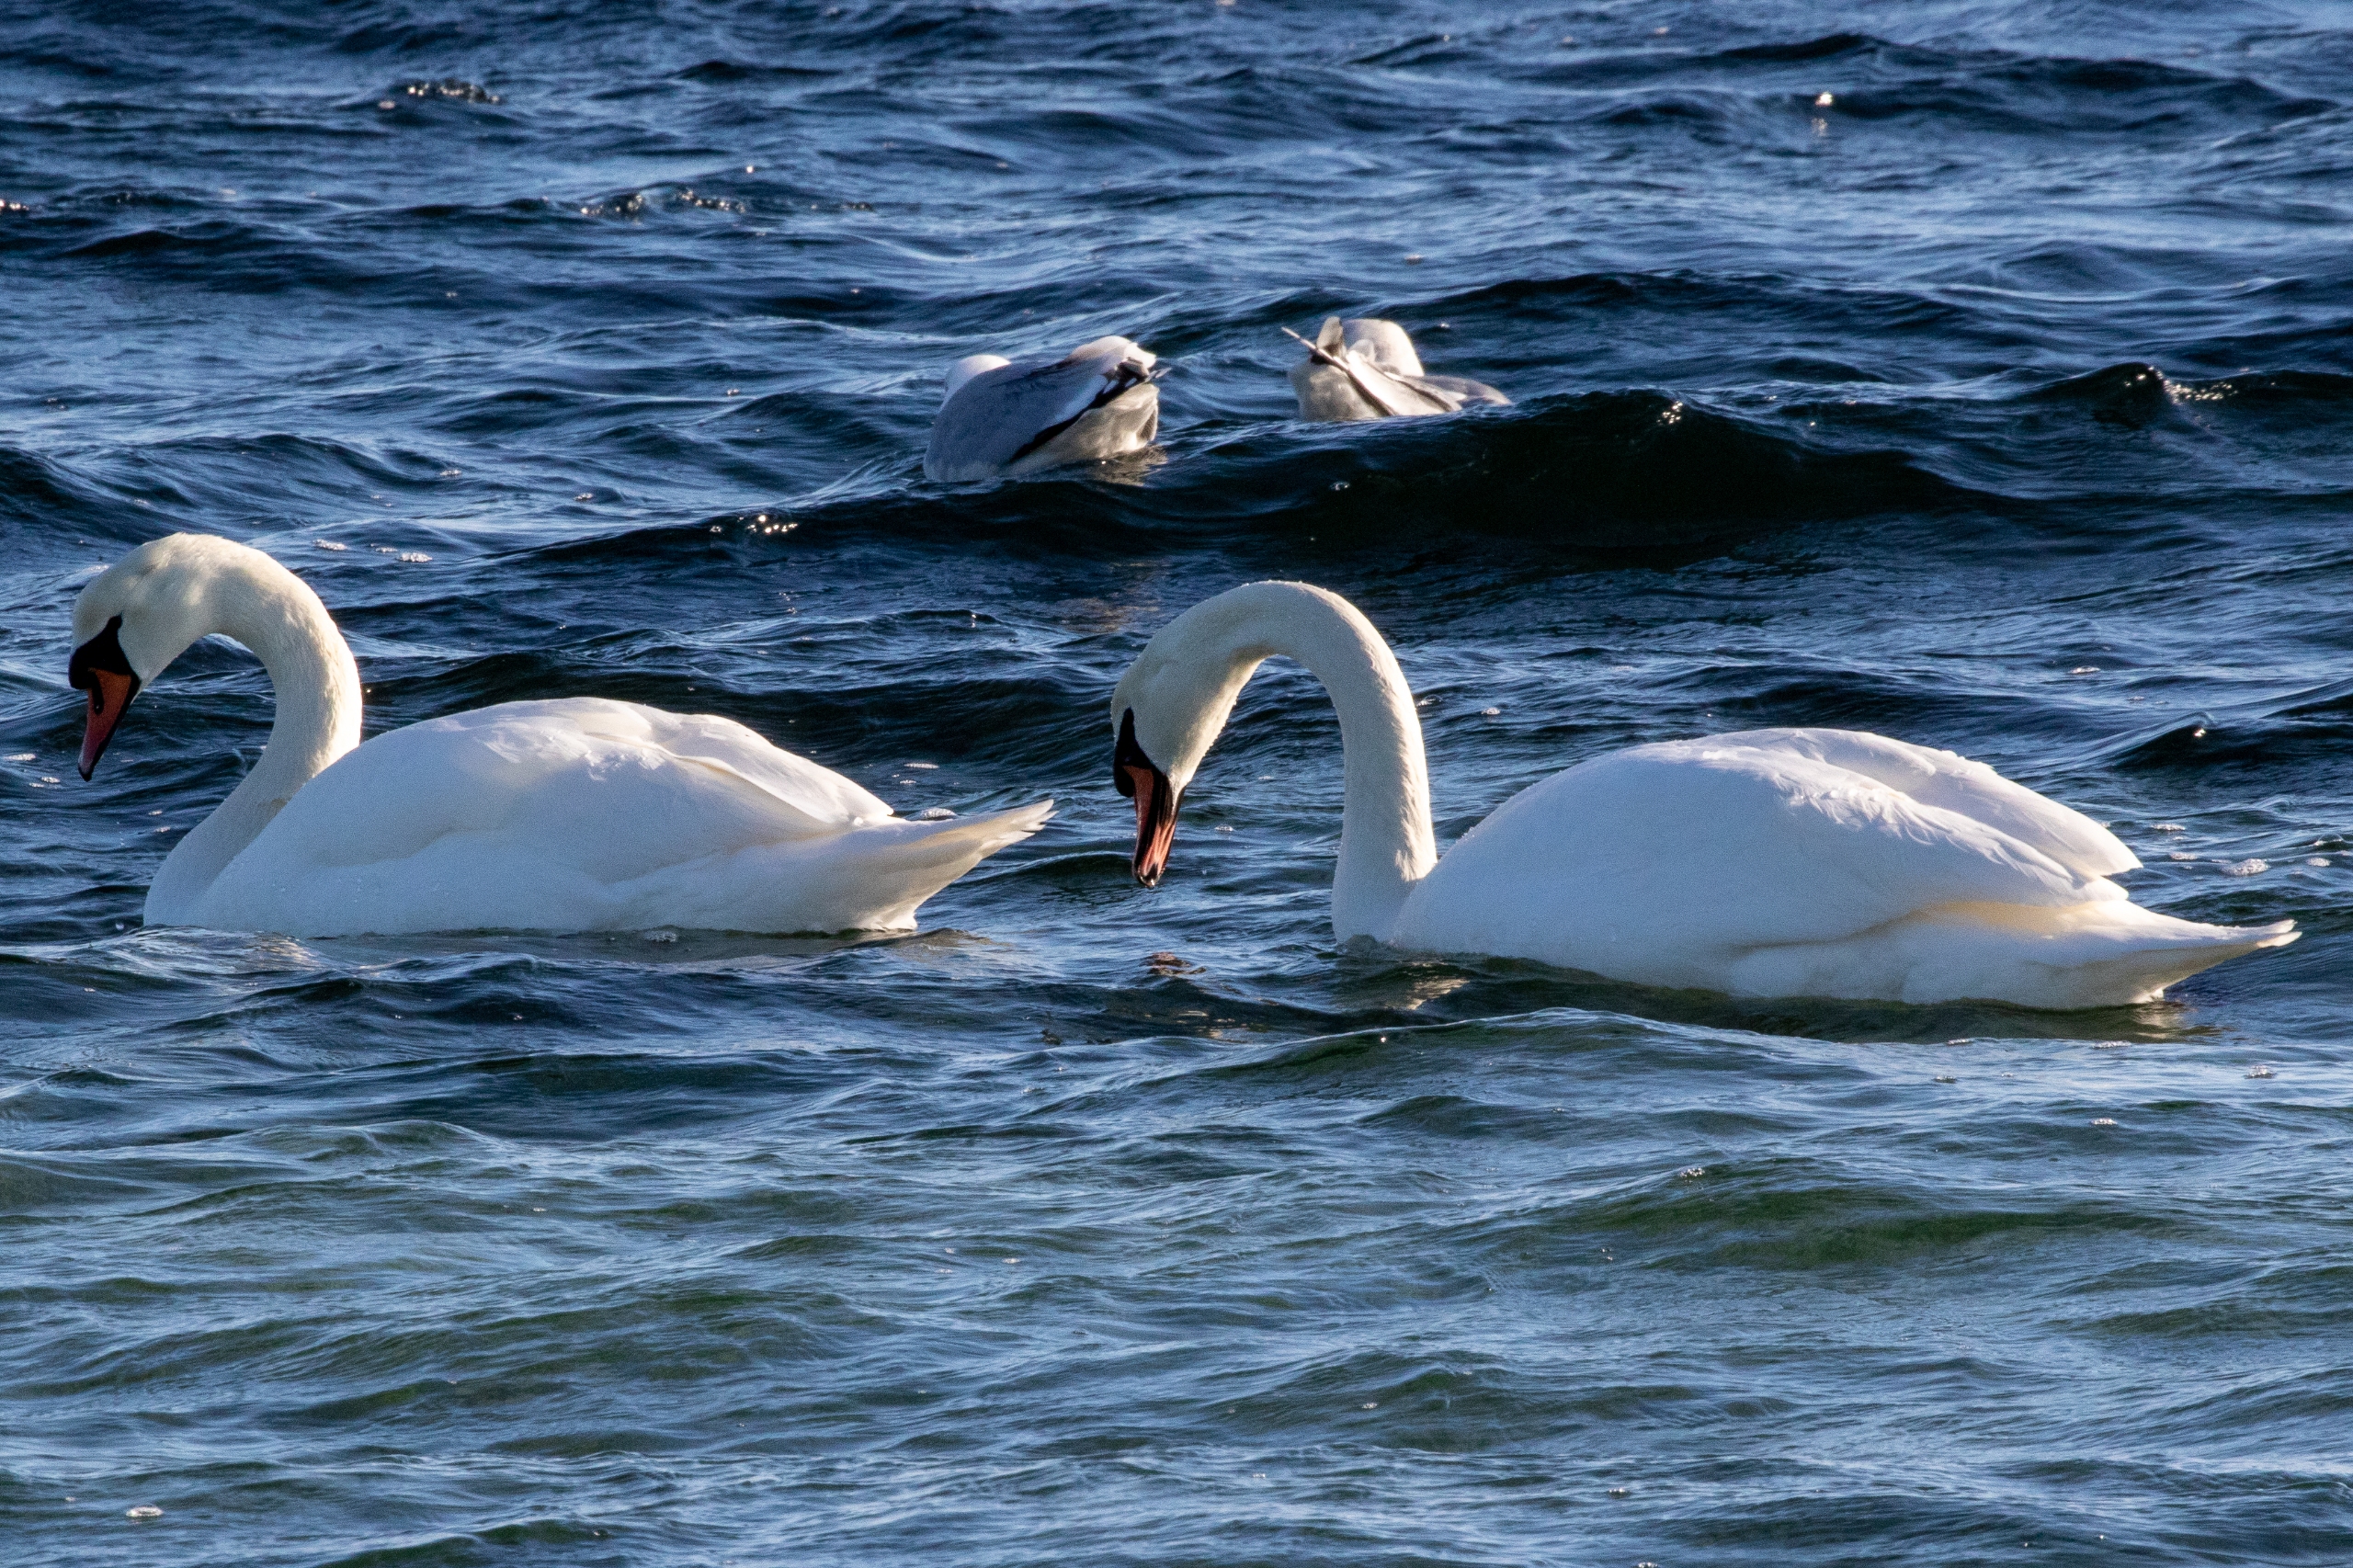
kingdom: Animalia
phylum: Chordata
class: Aves
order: Anseriformes
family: Anatidae
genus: Cygnus
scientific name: Cygnus olor
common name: Knopsvane
